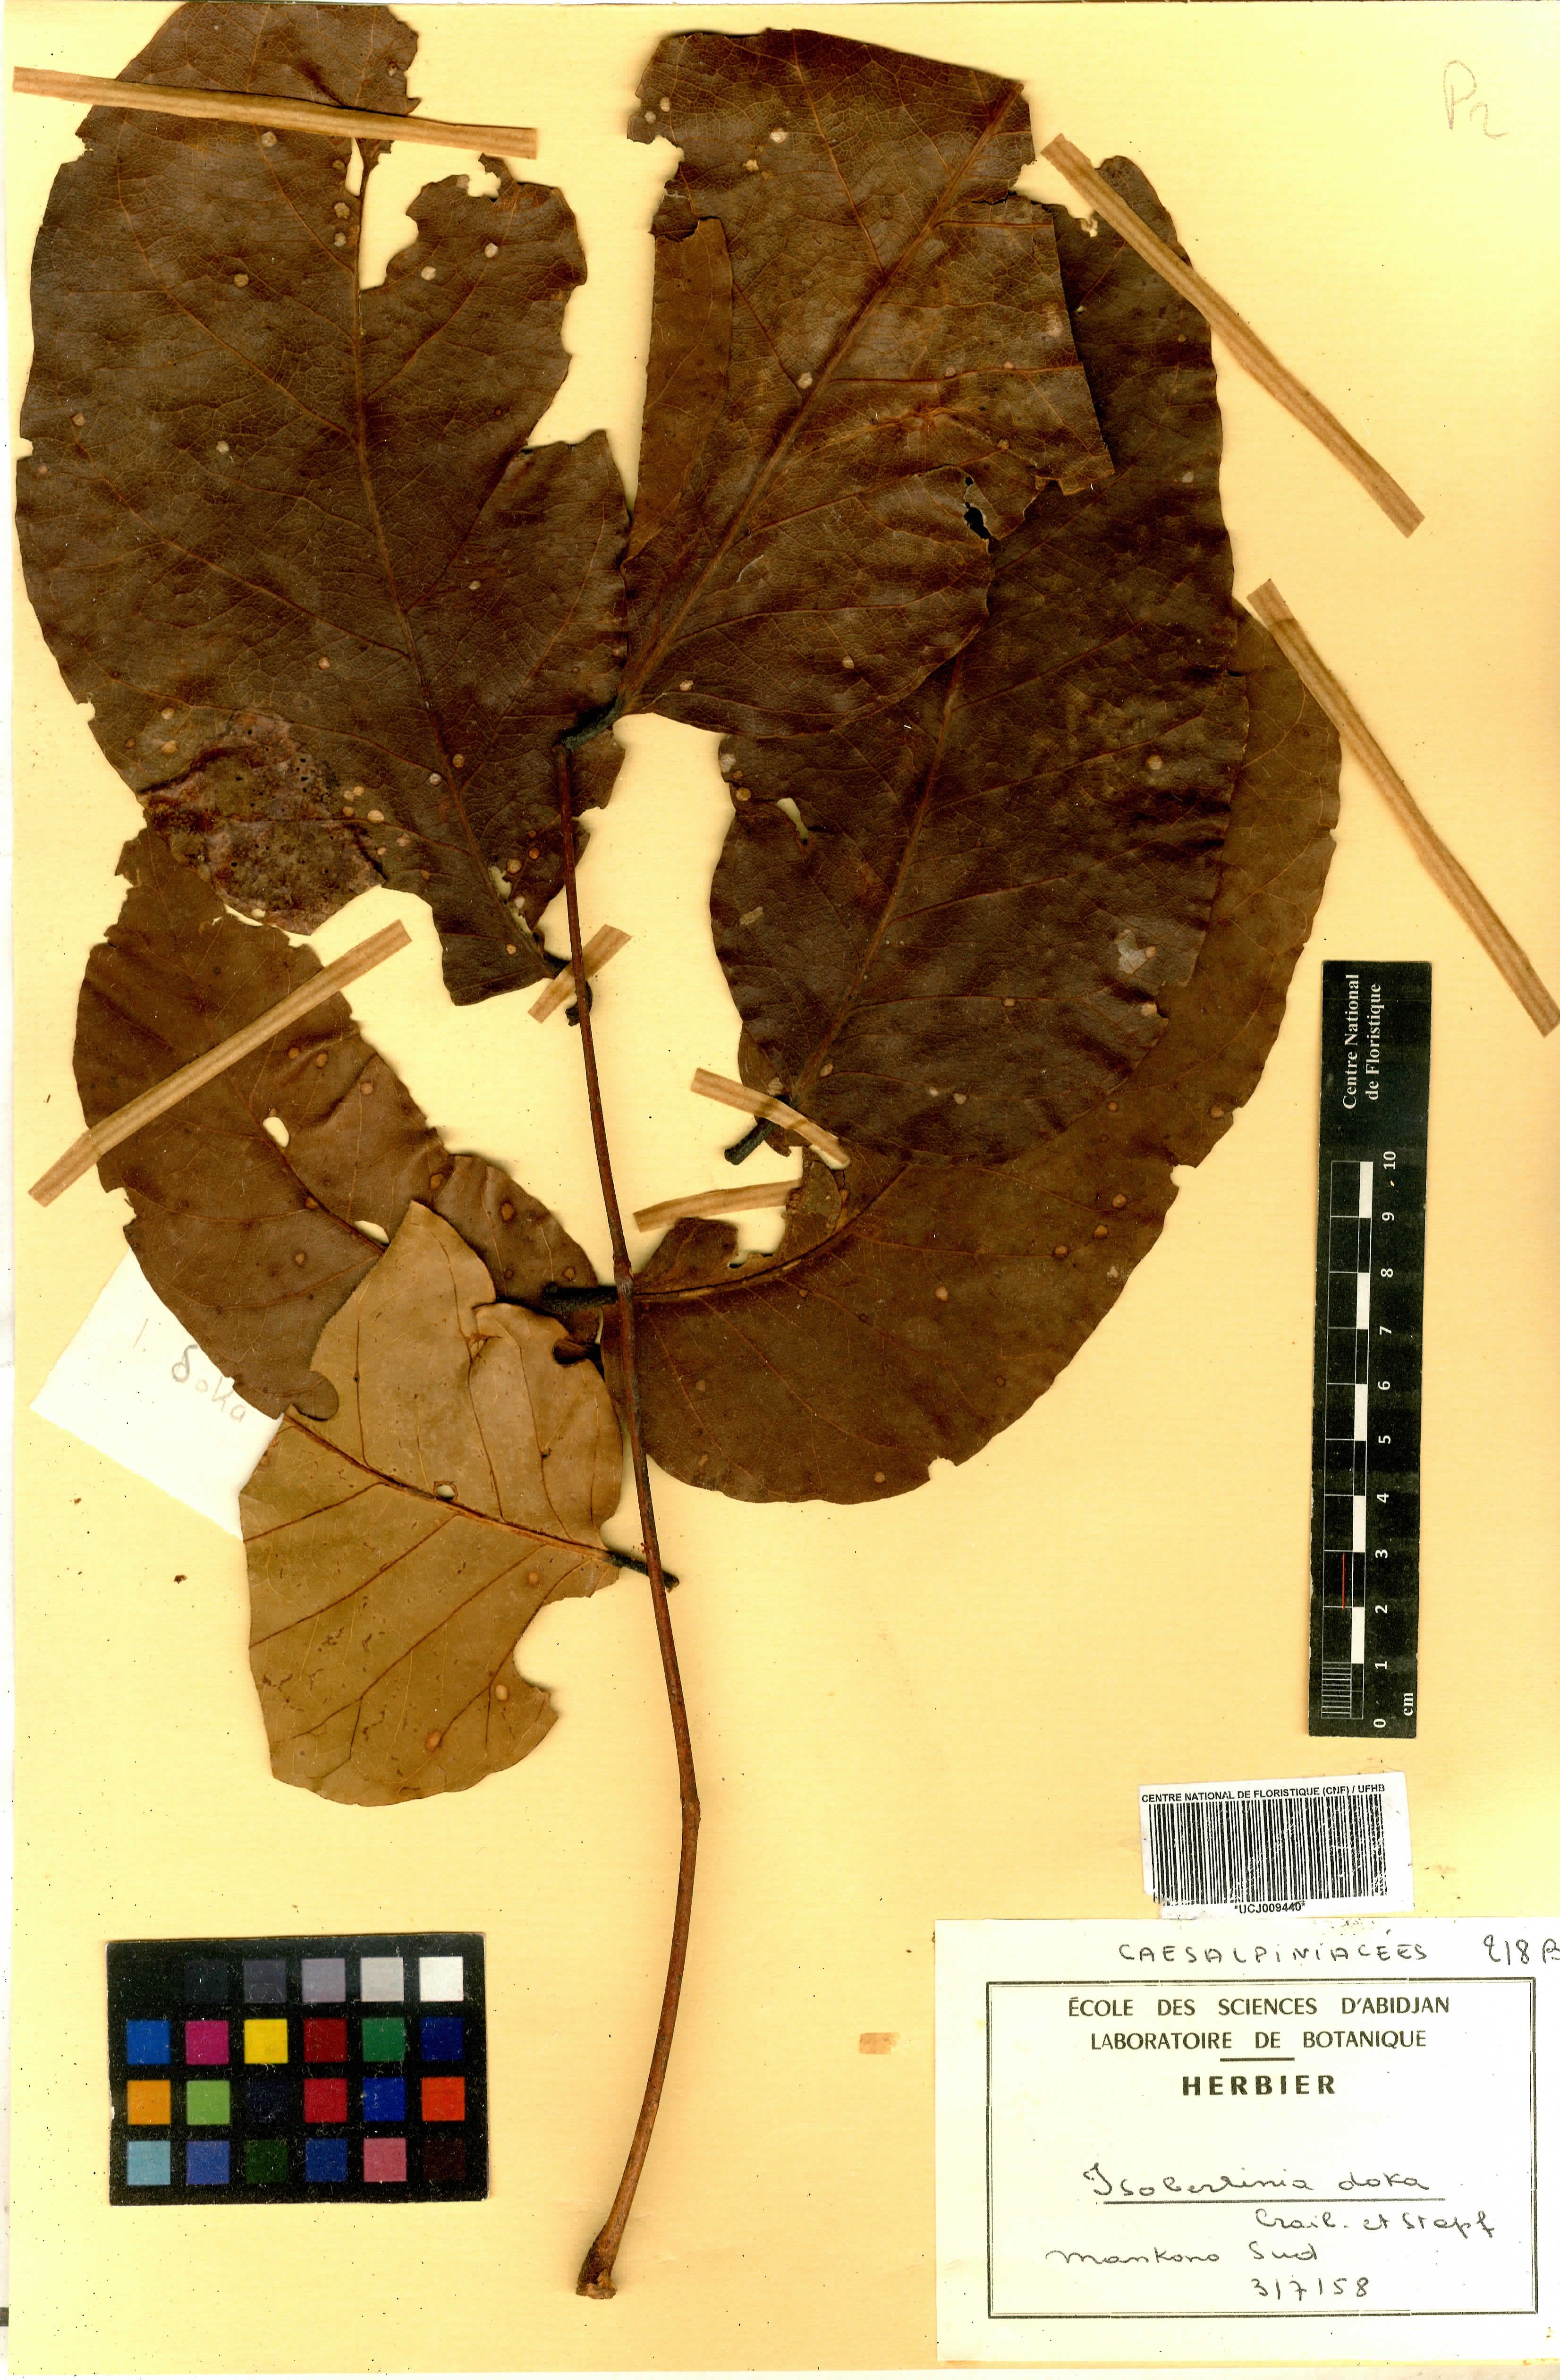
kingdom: Plantae
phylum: Tracheophyta
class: Magnoliopsida
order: Fabales
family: Fabaceae
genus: Isoberlinia
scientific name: Isoberlinia doka
